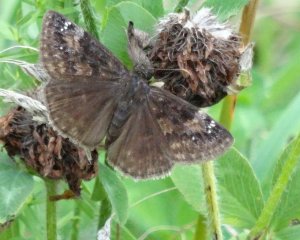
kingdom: Animalia
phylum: Arthropoda
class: Insecta
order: Lepidoptera
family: Hesperiidae
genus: Gesta
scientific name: Gesta
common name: Wild Indigo Duskywing
